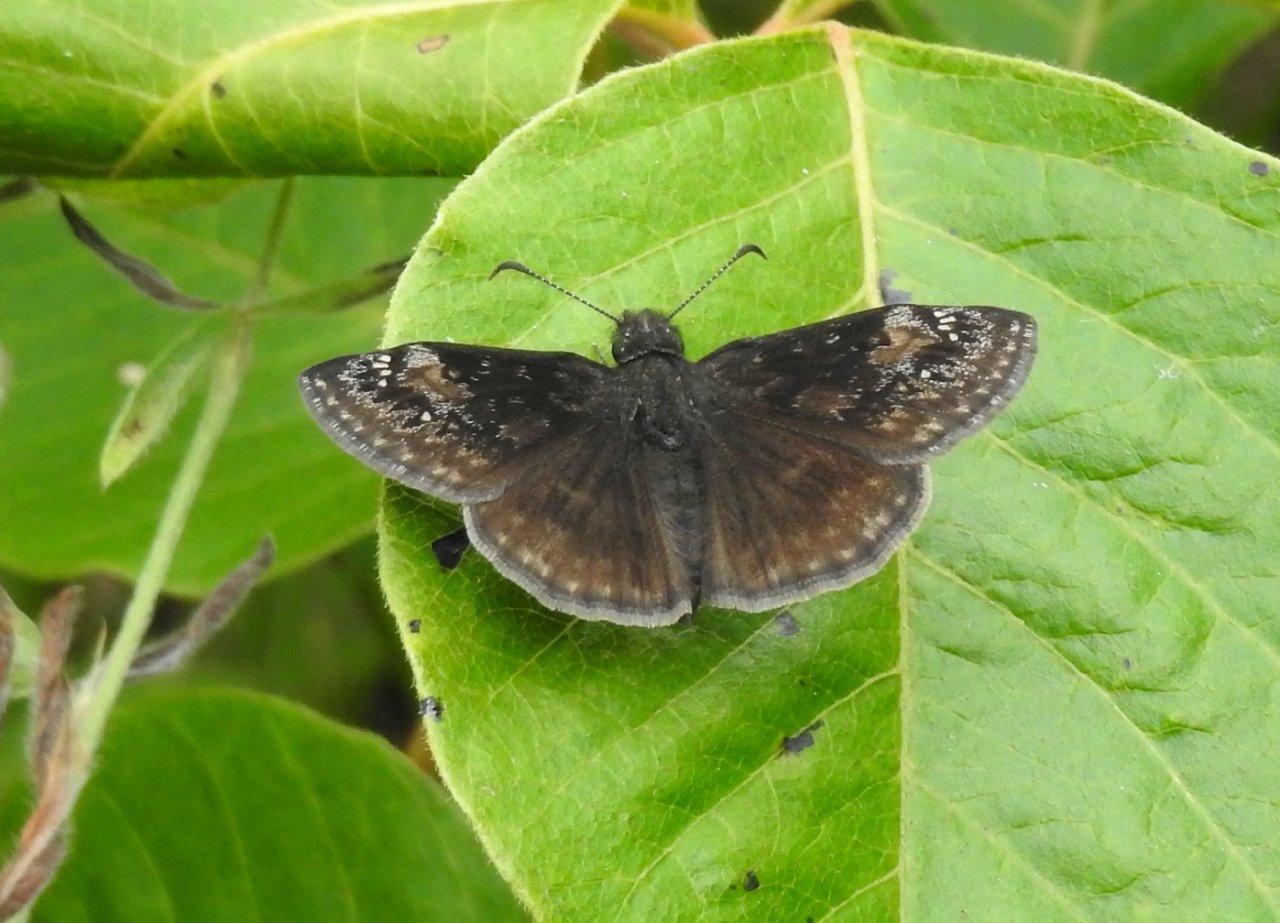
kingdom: Animalia
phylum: Arthropoda
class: Insecta
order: Lepidoptera
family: Hesperiidae
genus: Gesta
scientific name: Gesta
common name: Wild Indigo Duskywing
